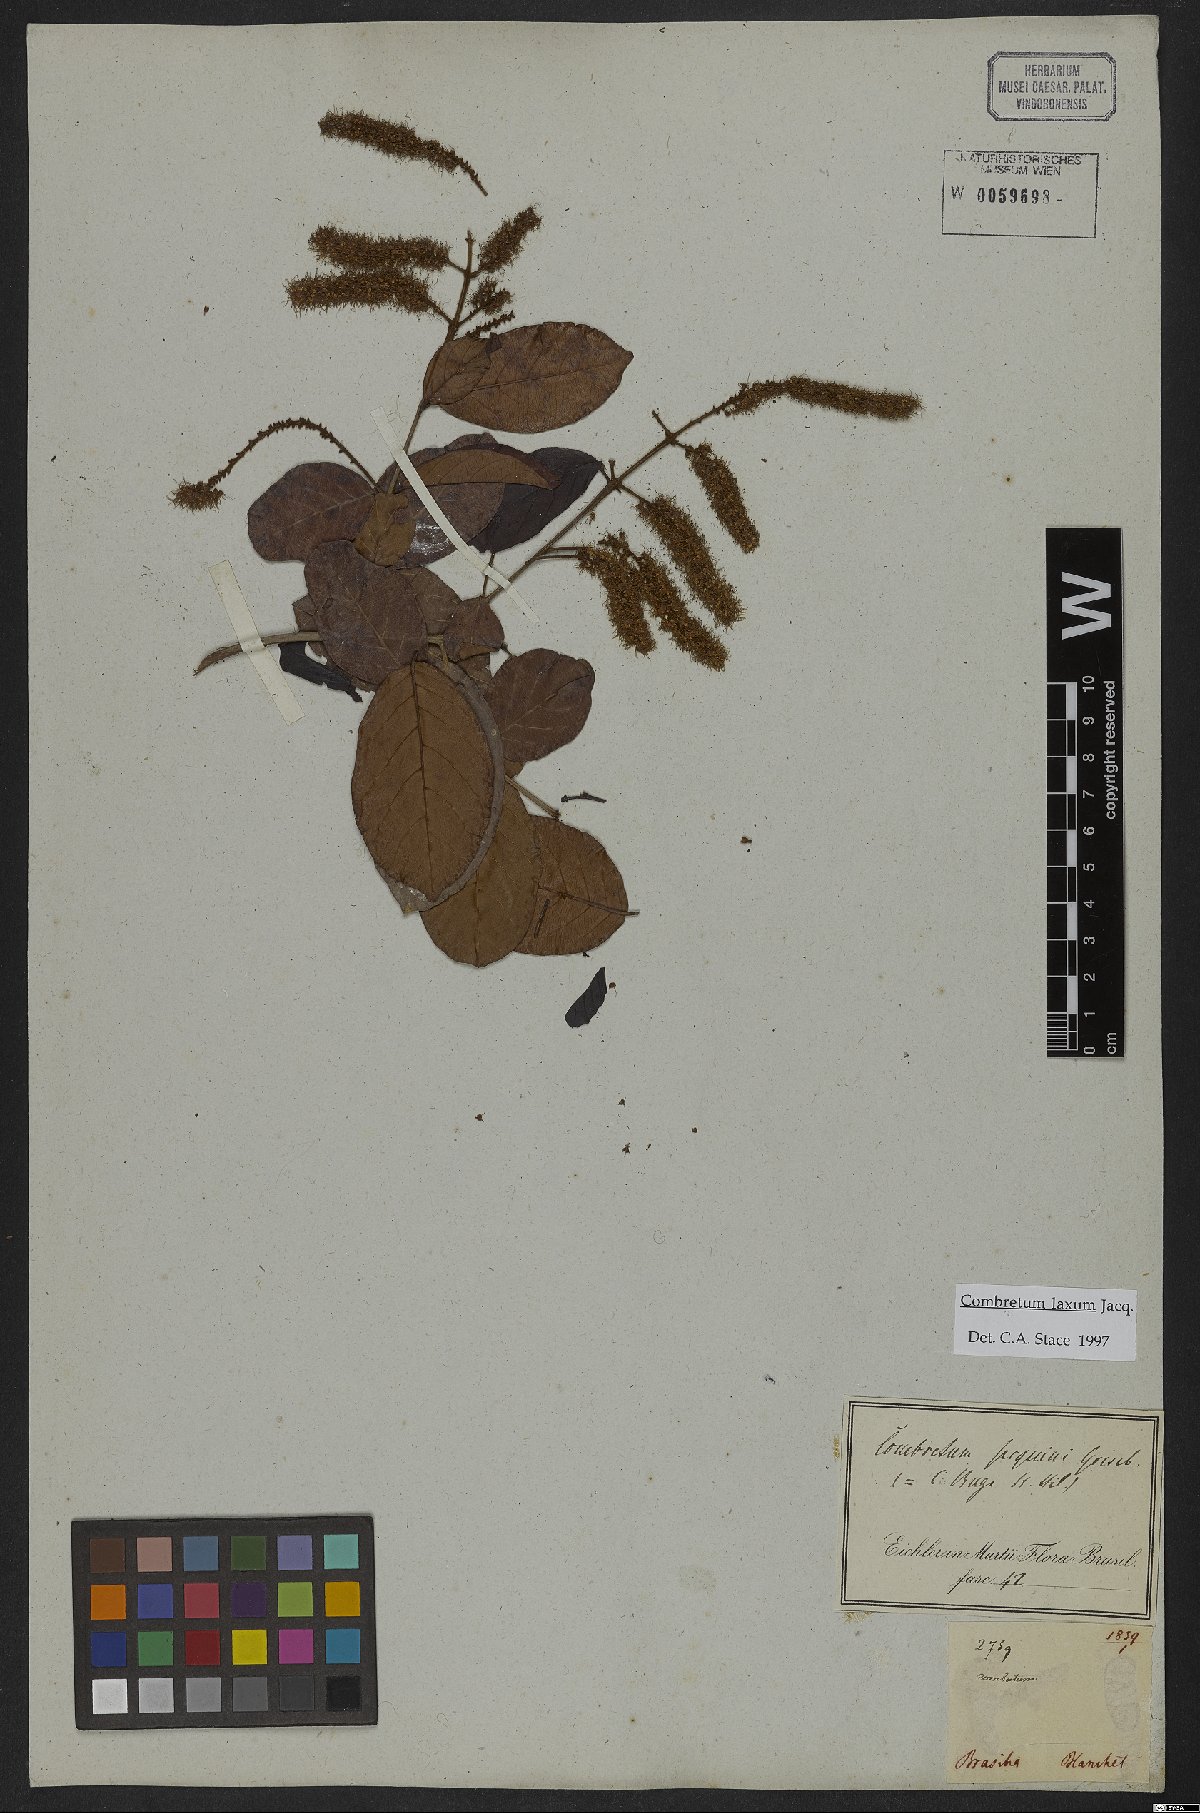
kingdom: Plantae
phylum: Tracheophyta
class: Magnoliopsida
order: Myrtales
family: Combretaceae
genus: Combretum
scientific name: Combretum laxum
